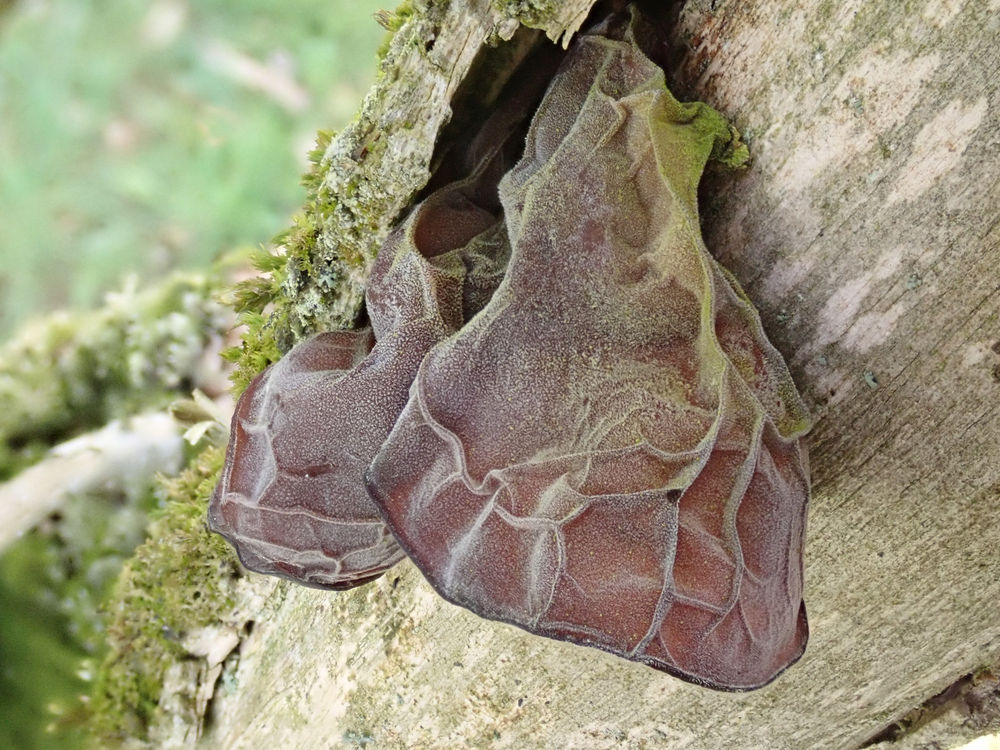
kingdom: Fungi
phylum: Basidiomycota
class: Agaricomycetes
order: Auriculariales
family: Auriculariaceae
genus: Auricularia
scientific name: Auricularia auricula-judae
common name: Almindelig judasøre
